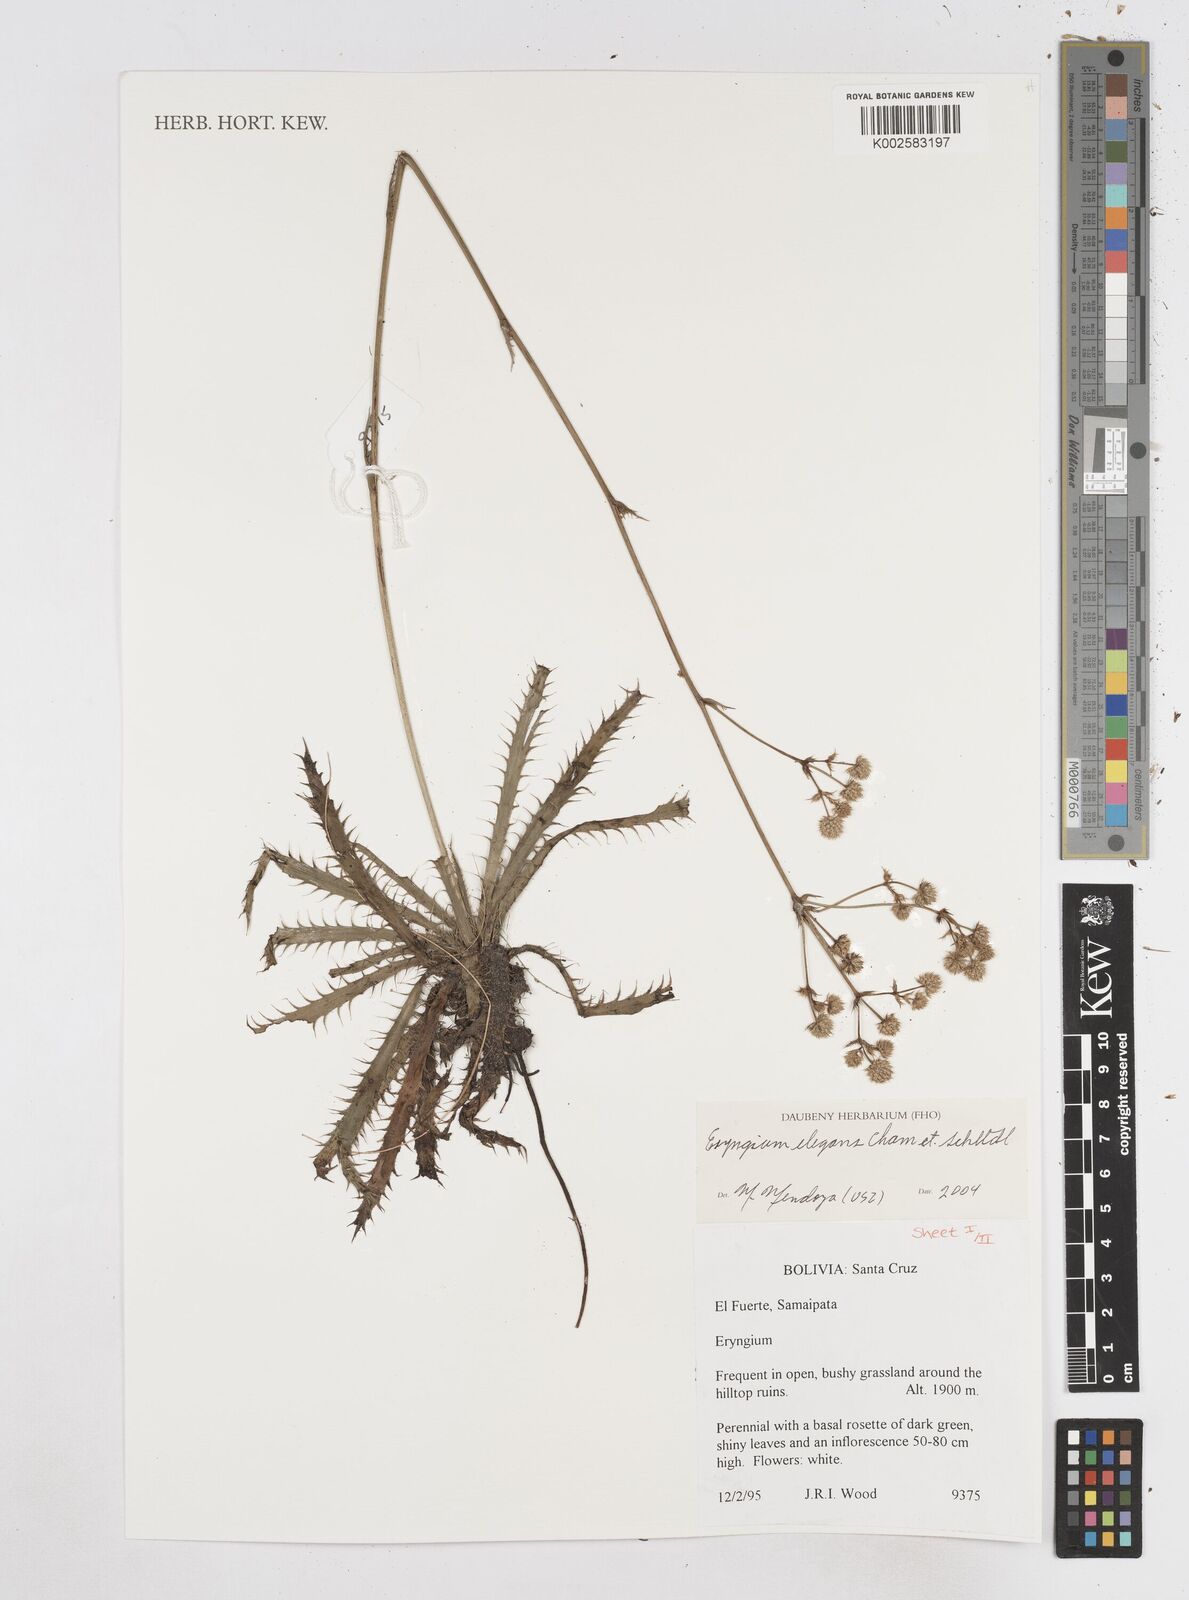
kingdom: Plantae
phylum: Tracheophyta
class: Magnoliopsida
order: Apiales
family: Apiaceae
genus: Eryngium
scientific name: Eryngium elegans
